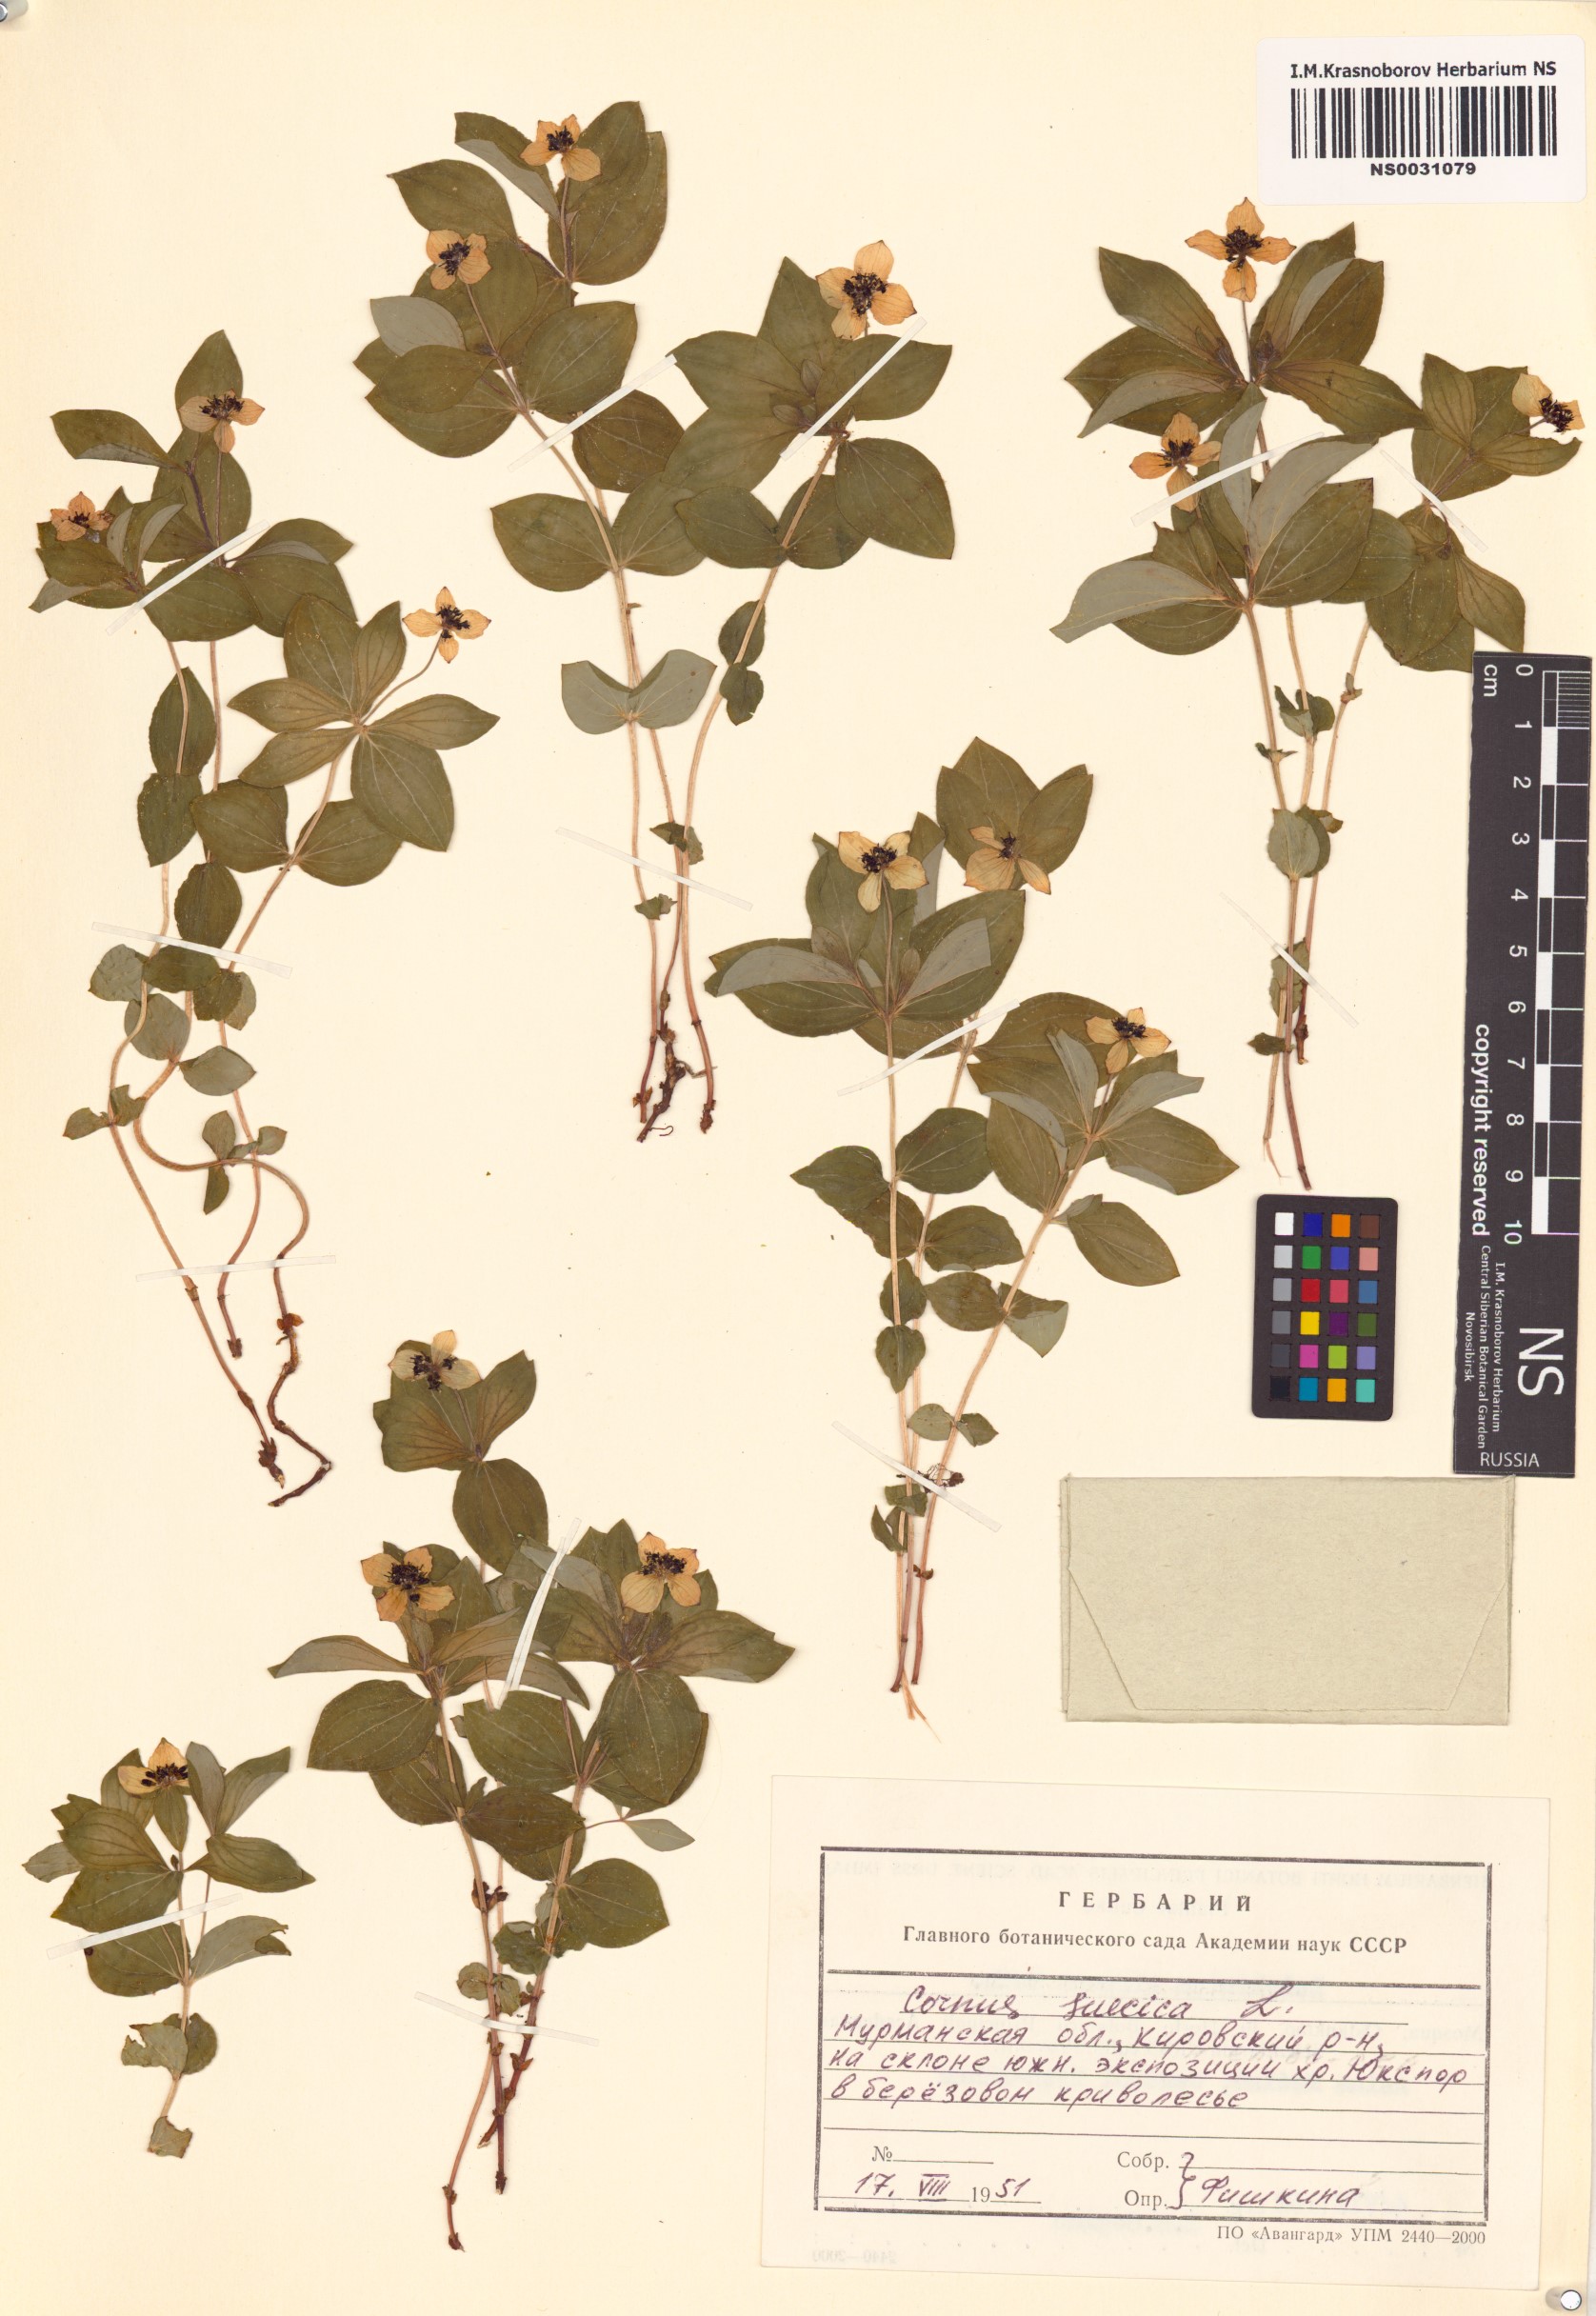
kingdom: Plantae
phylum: Tracheophyta
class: Magnoliopsida
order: Cornales
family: Cornaceae
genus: Cornus
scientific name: Cornus suecica
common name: Dwarf cornel
